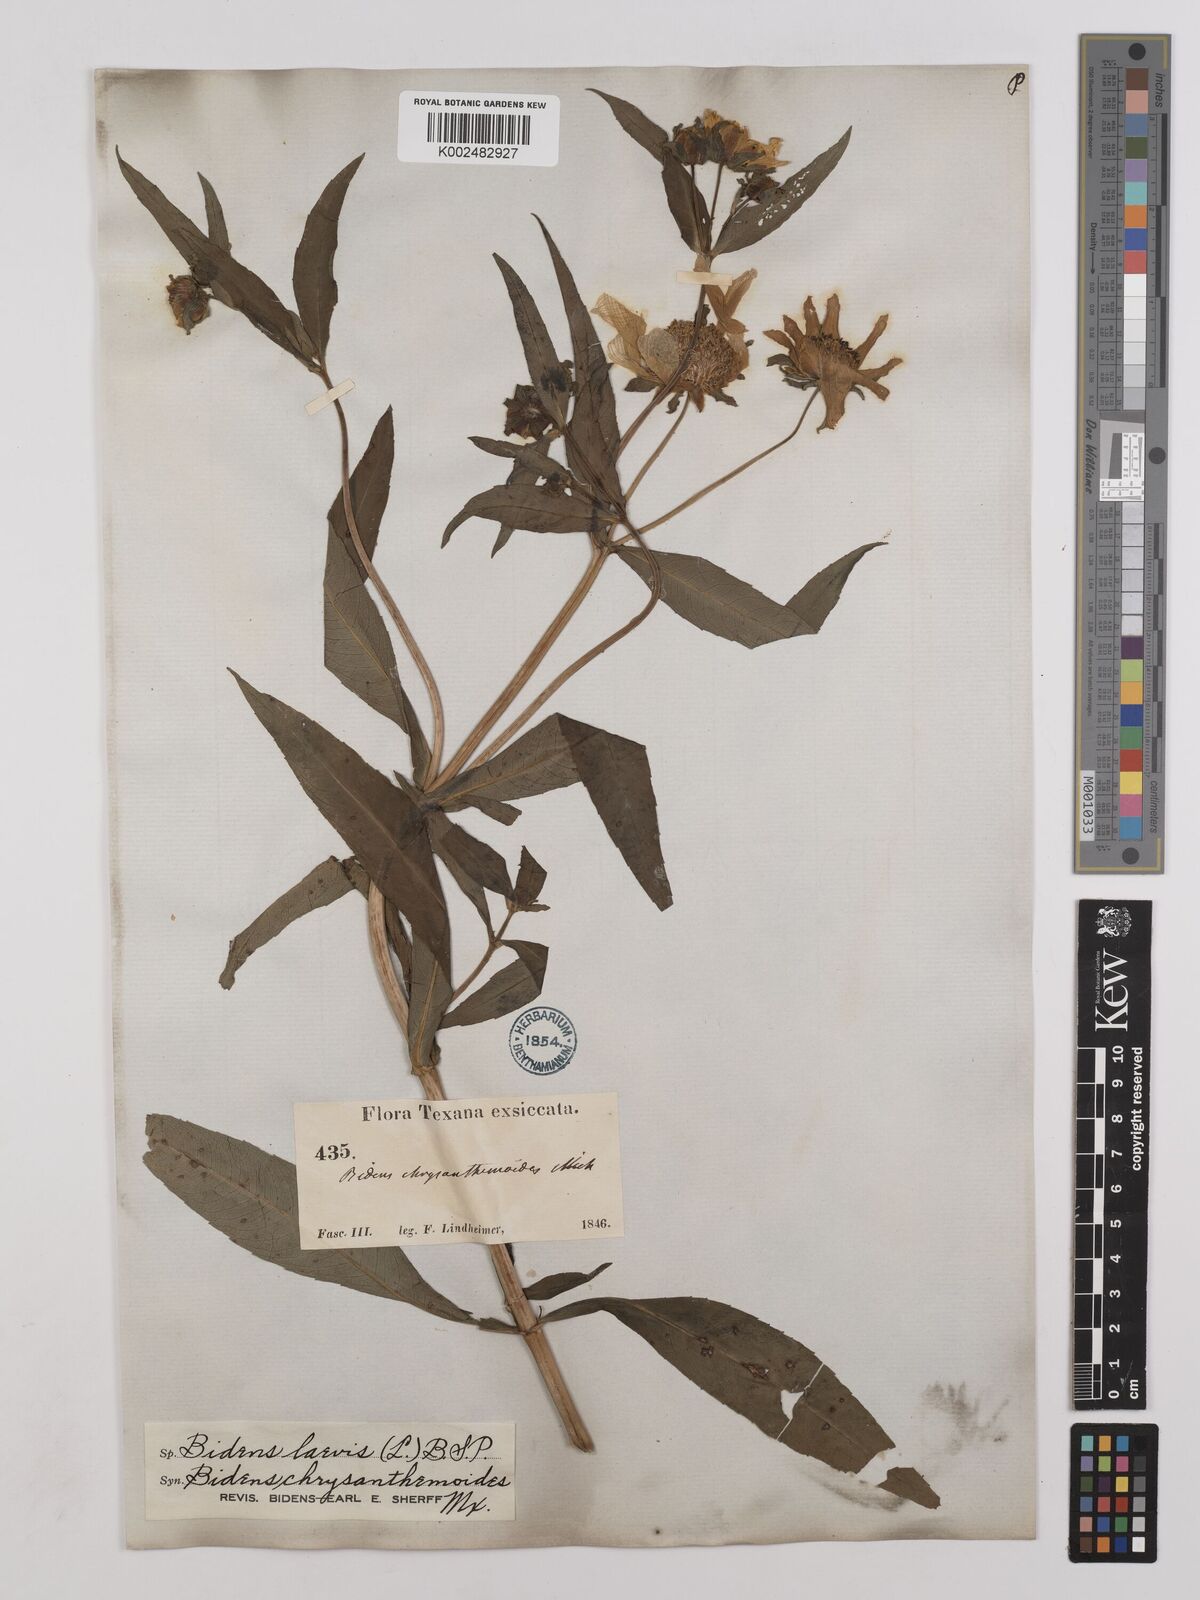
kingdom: Plantae
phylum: Tracheophyta
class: Magnoliopsida
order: Asterales
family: Asteraceae
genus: Bidens
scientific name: Bidens
